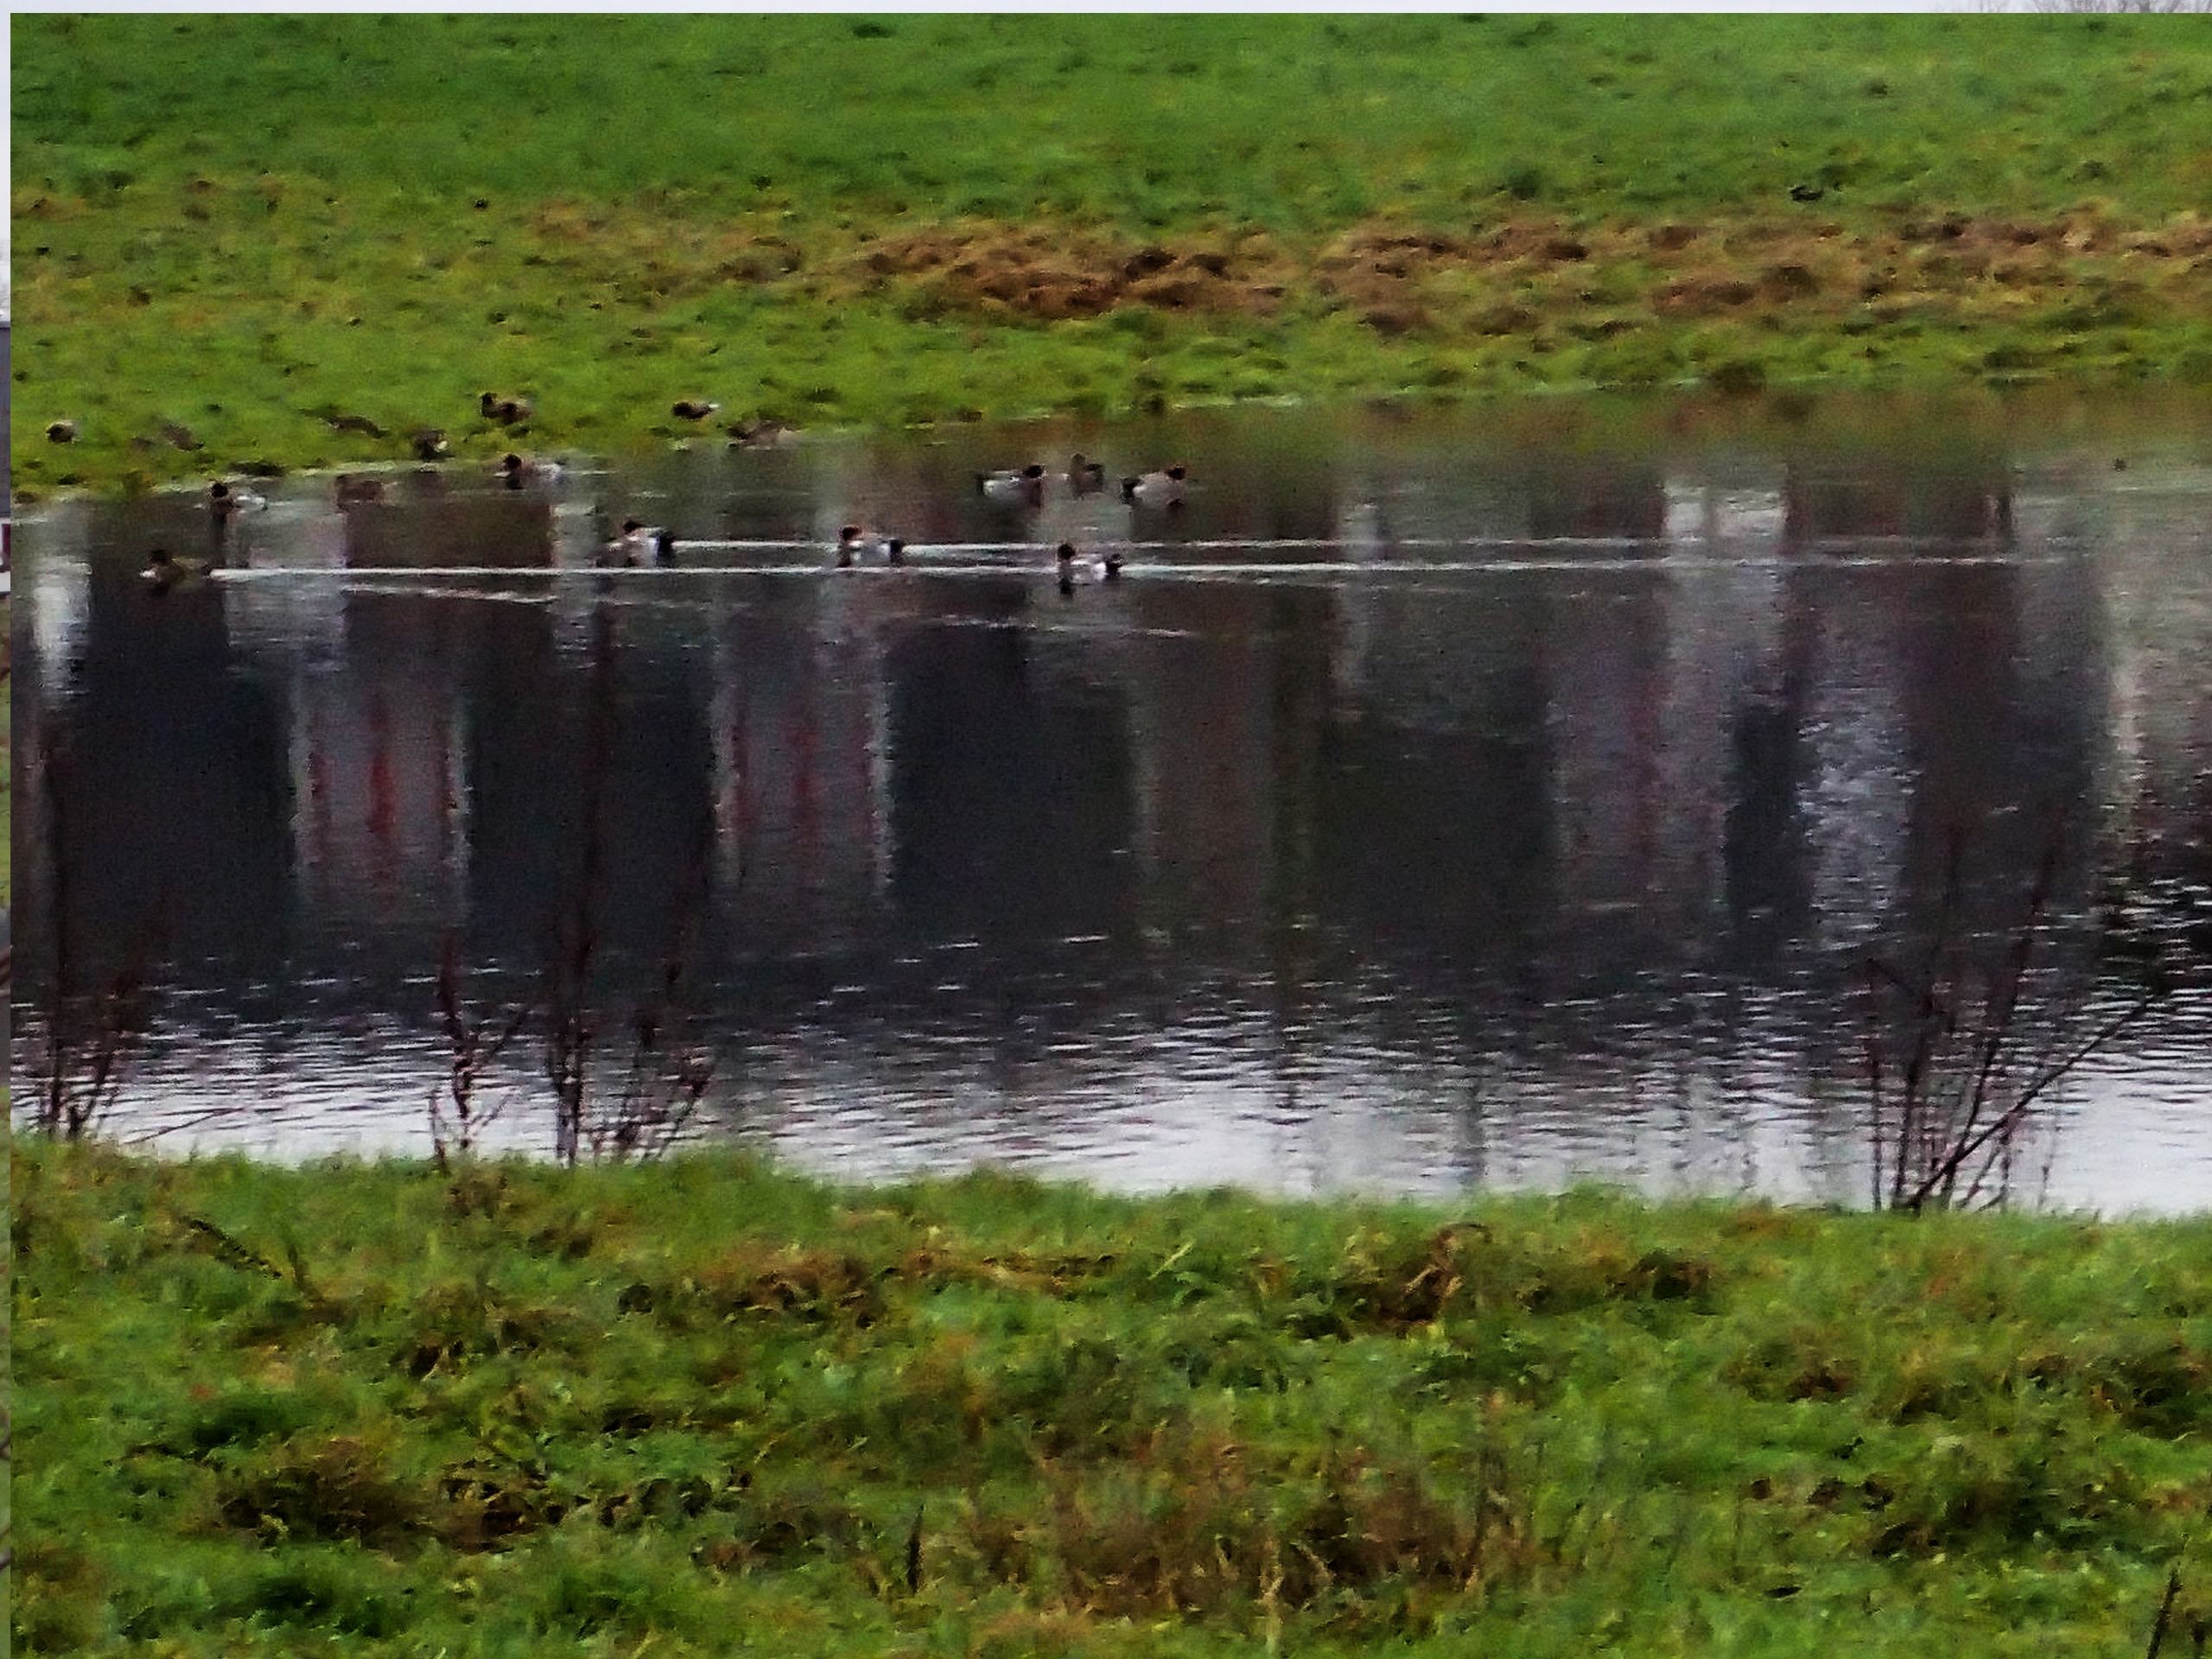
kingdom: Animalia
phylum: Chordata
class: Aves
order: Anseriformes
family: Anatidae
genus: Mareca
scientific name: Mareca penelope
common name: Pibeand
